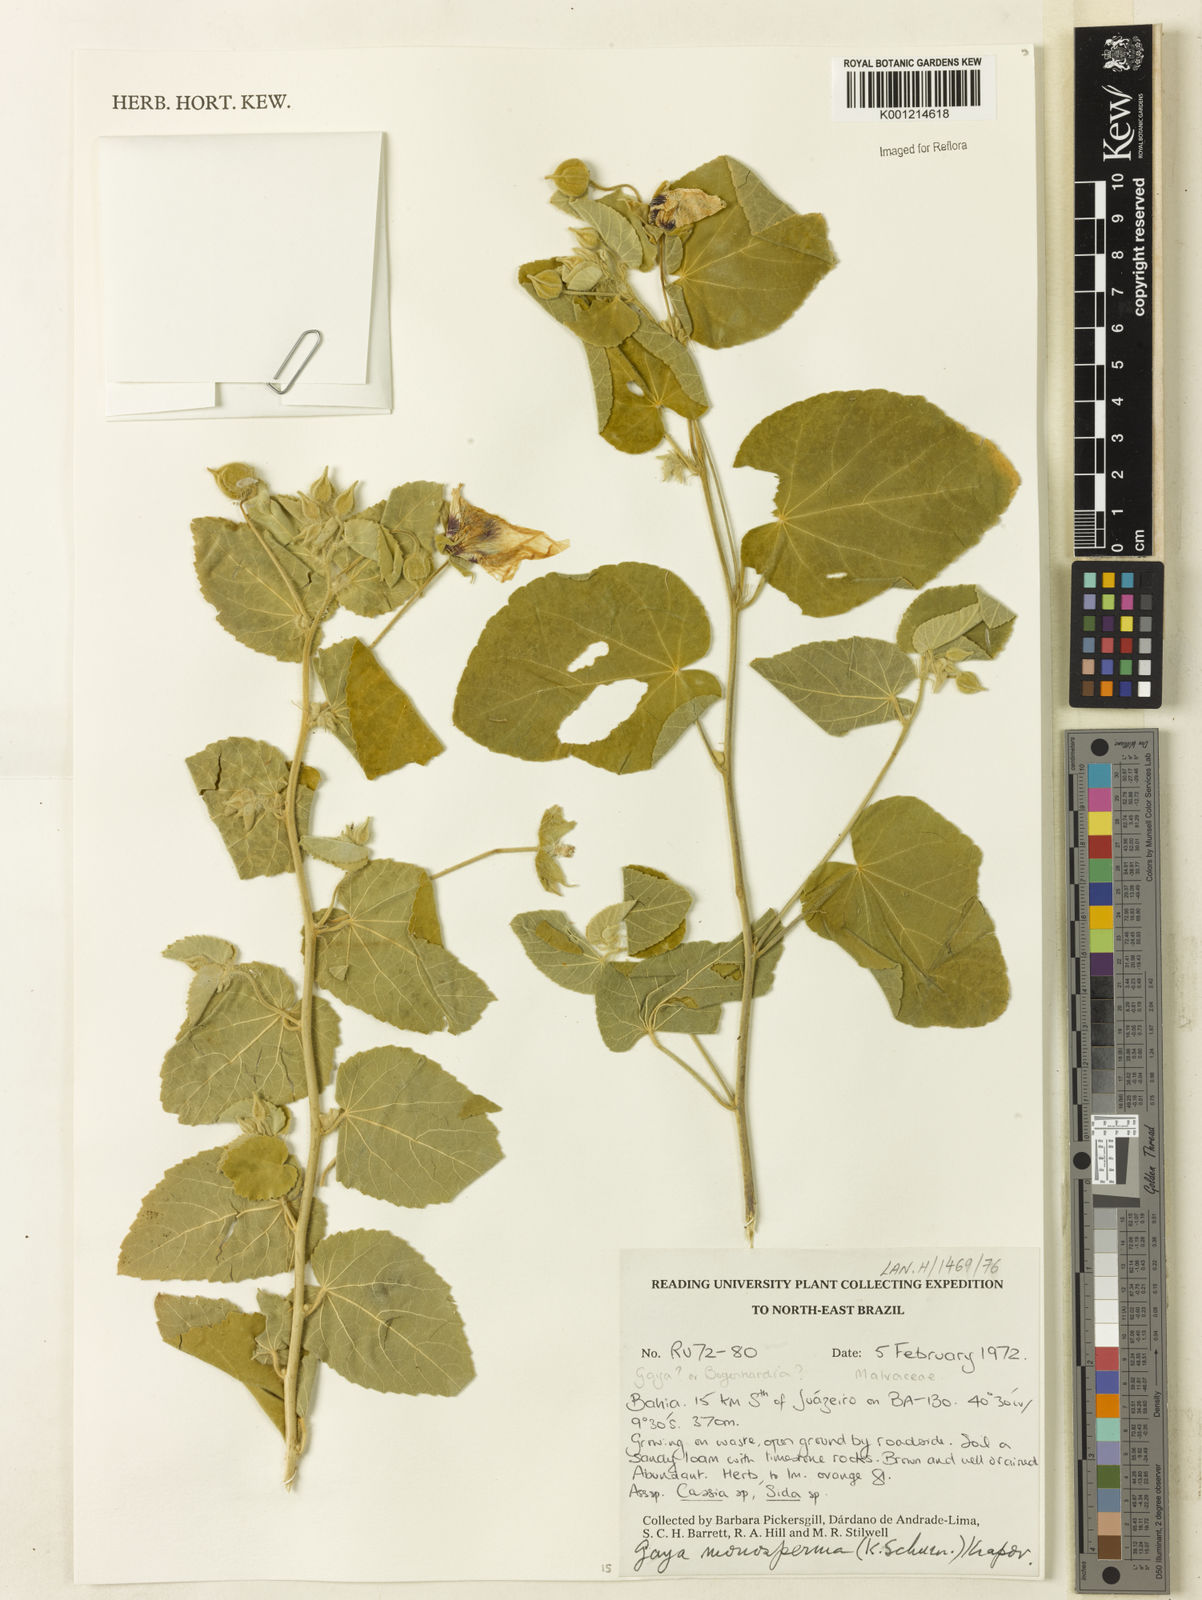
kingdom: Plantae
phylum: Tracheophyta
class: Magnoliopsida
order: Malvales
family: Malvaceae
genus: Gaya
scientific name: Gaya monosperma
